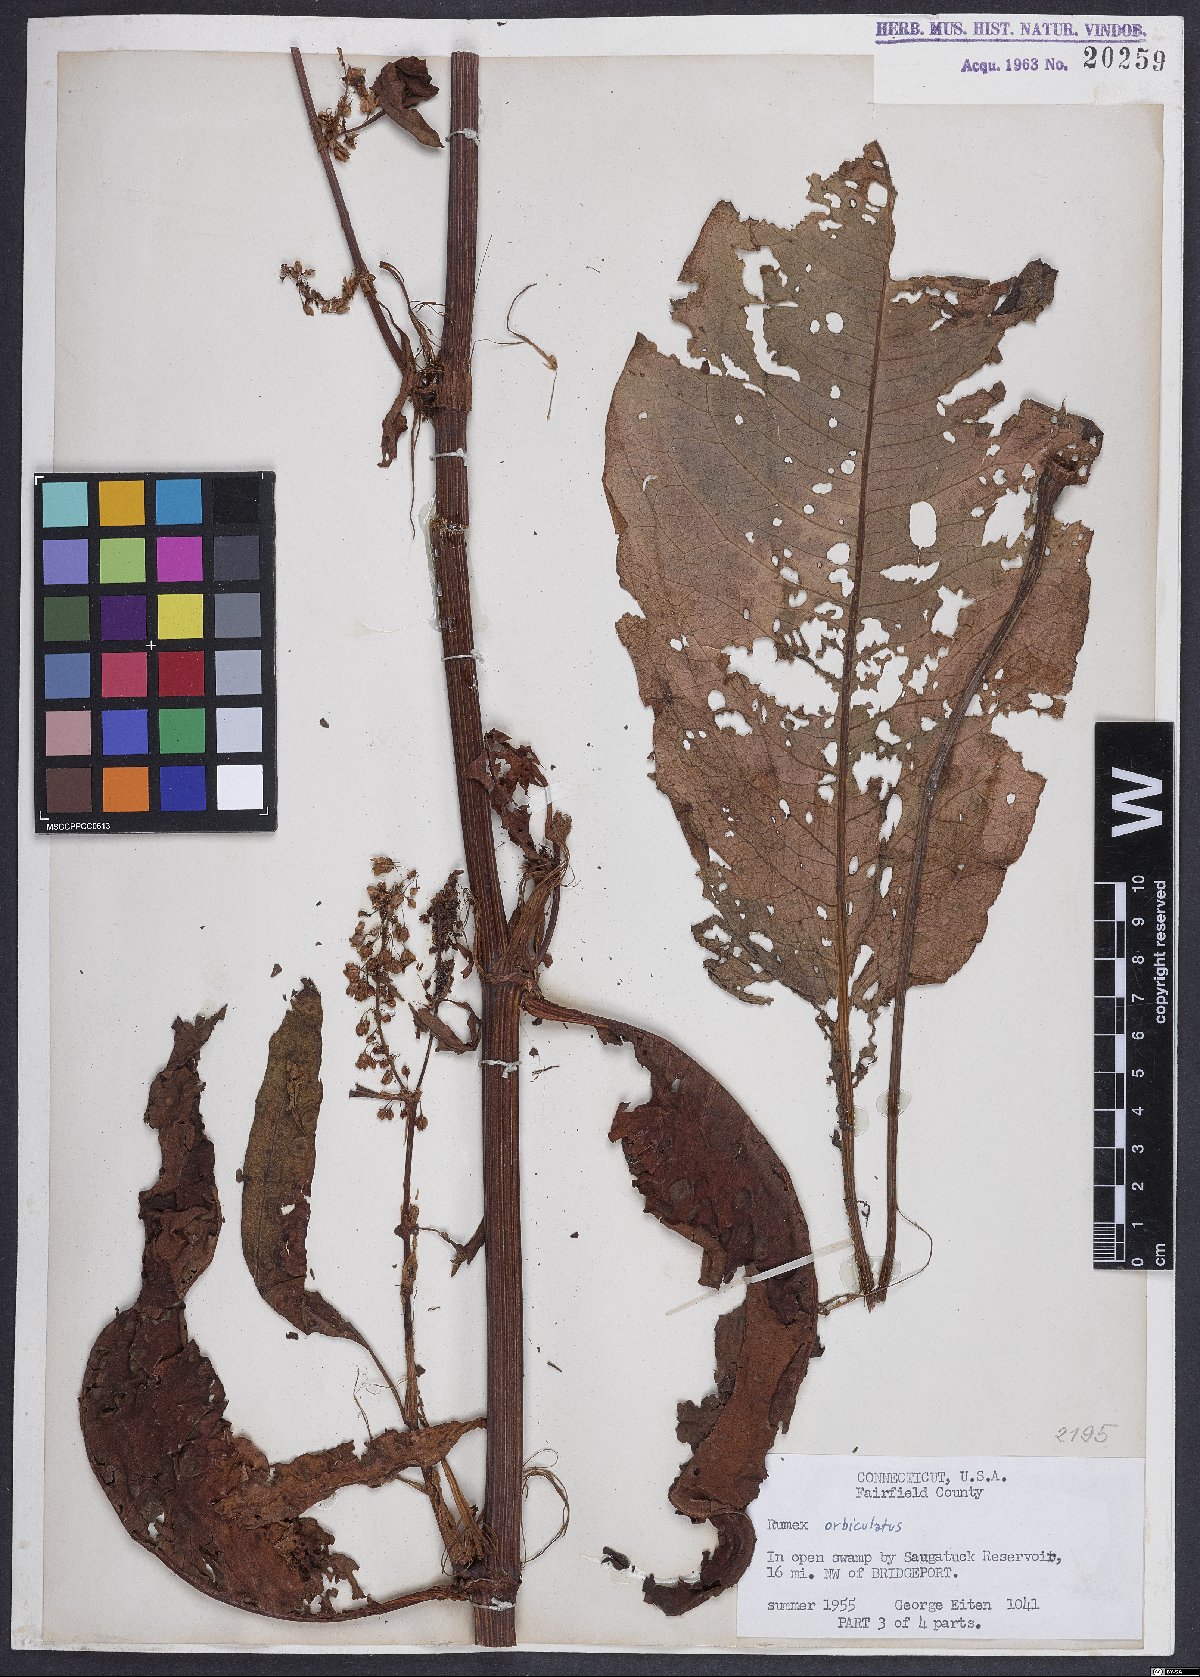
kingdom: Plantae
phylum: Tracheophyta
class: Magnoliopsida
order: Caryophyllales
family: Polygonaceae
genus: Rumex
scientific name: Rumex orbiculatus
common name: Greater water dock
